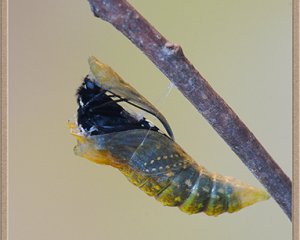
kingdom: Animalia
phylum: Arthropoda
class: Insecta
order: Lepidoptera
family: Papilionidae
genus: Papilio
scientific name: Papilio polyxenes
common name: Black Swallowtail
